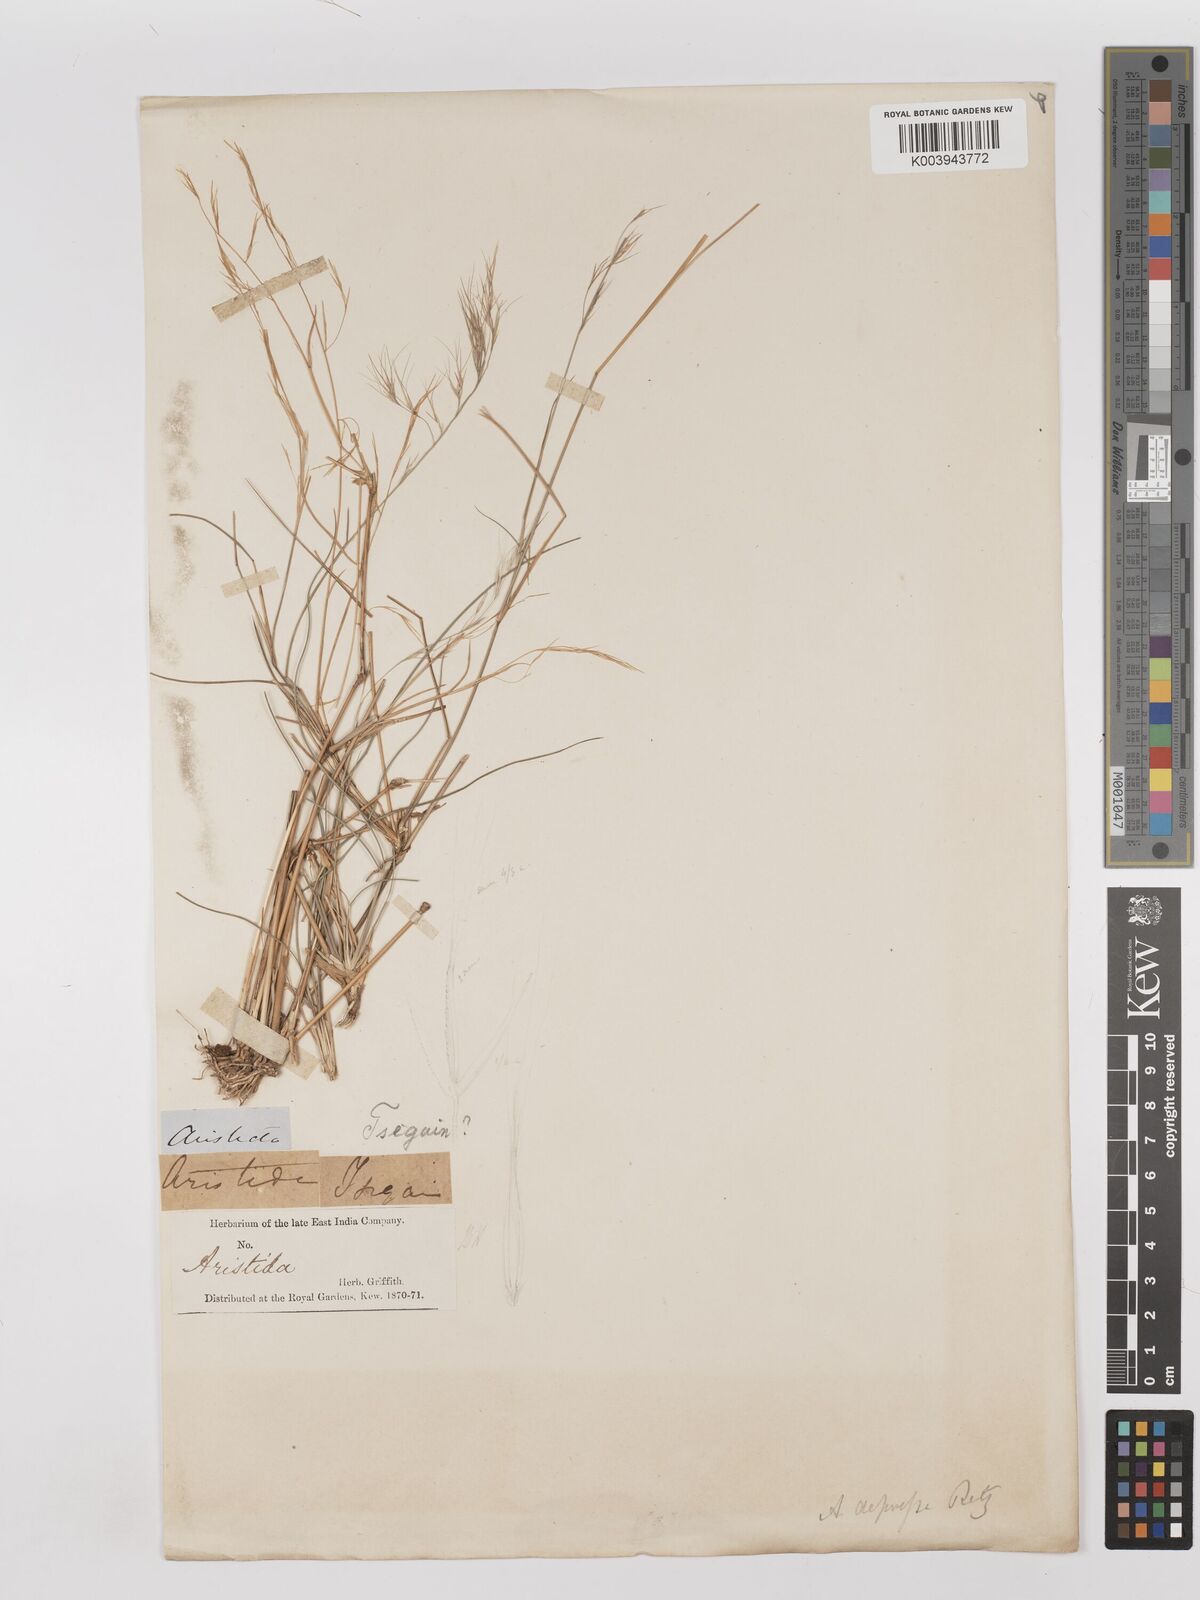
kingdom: Plantae
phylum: Tracheophyta
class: Liliopsida
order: Poales
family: Poaceae
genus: Aristida
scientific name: Aristida adscensionis
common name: Sixweeks threeawn
